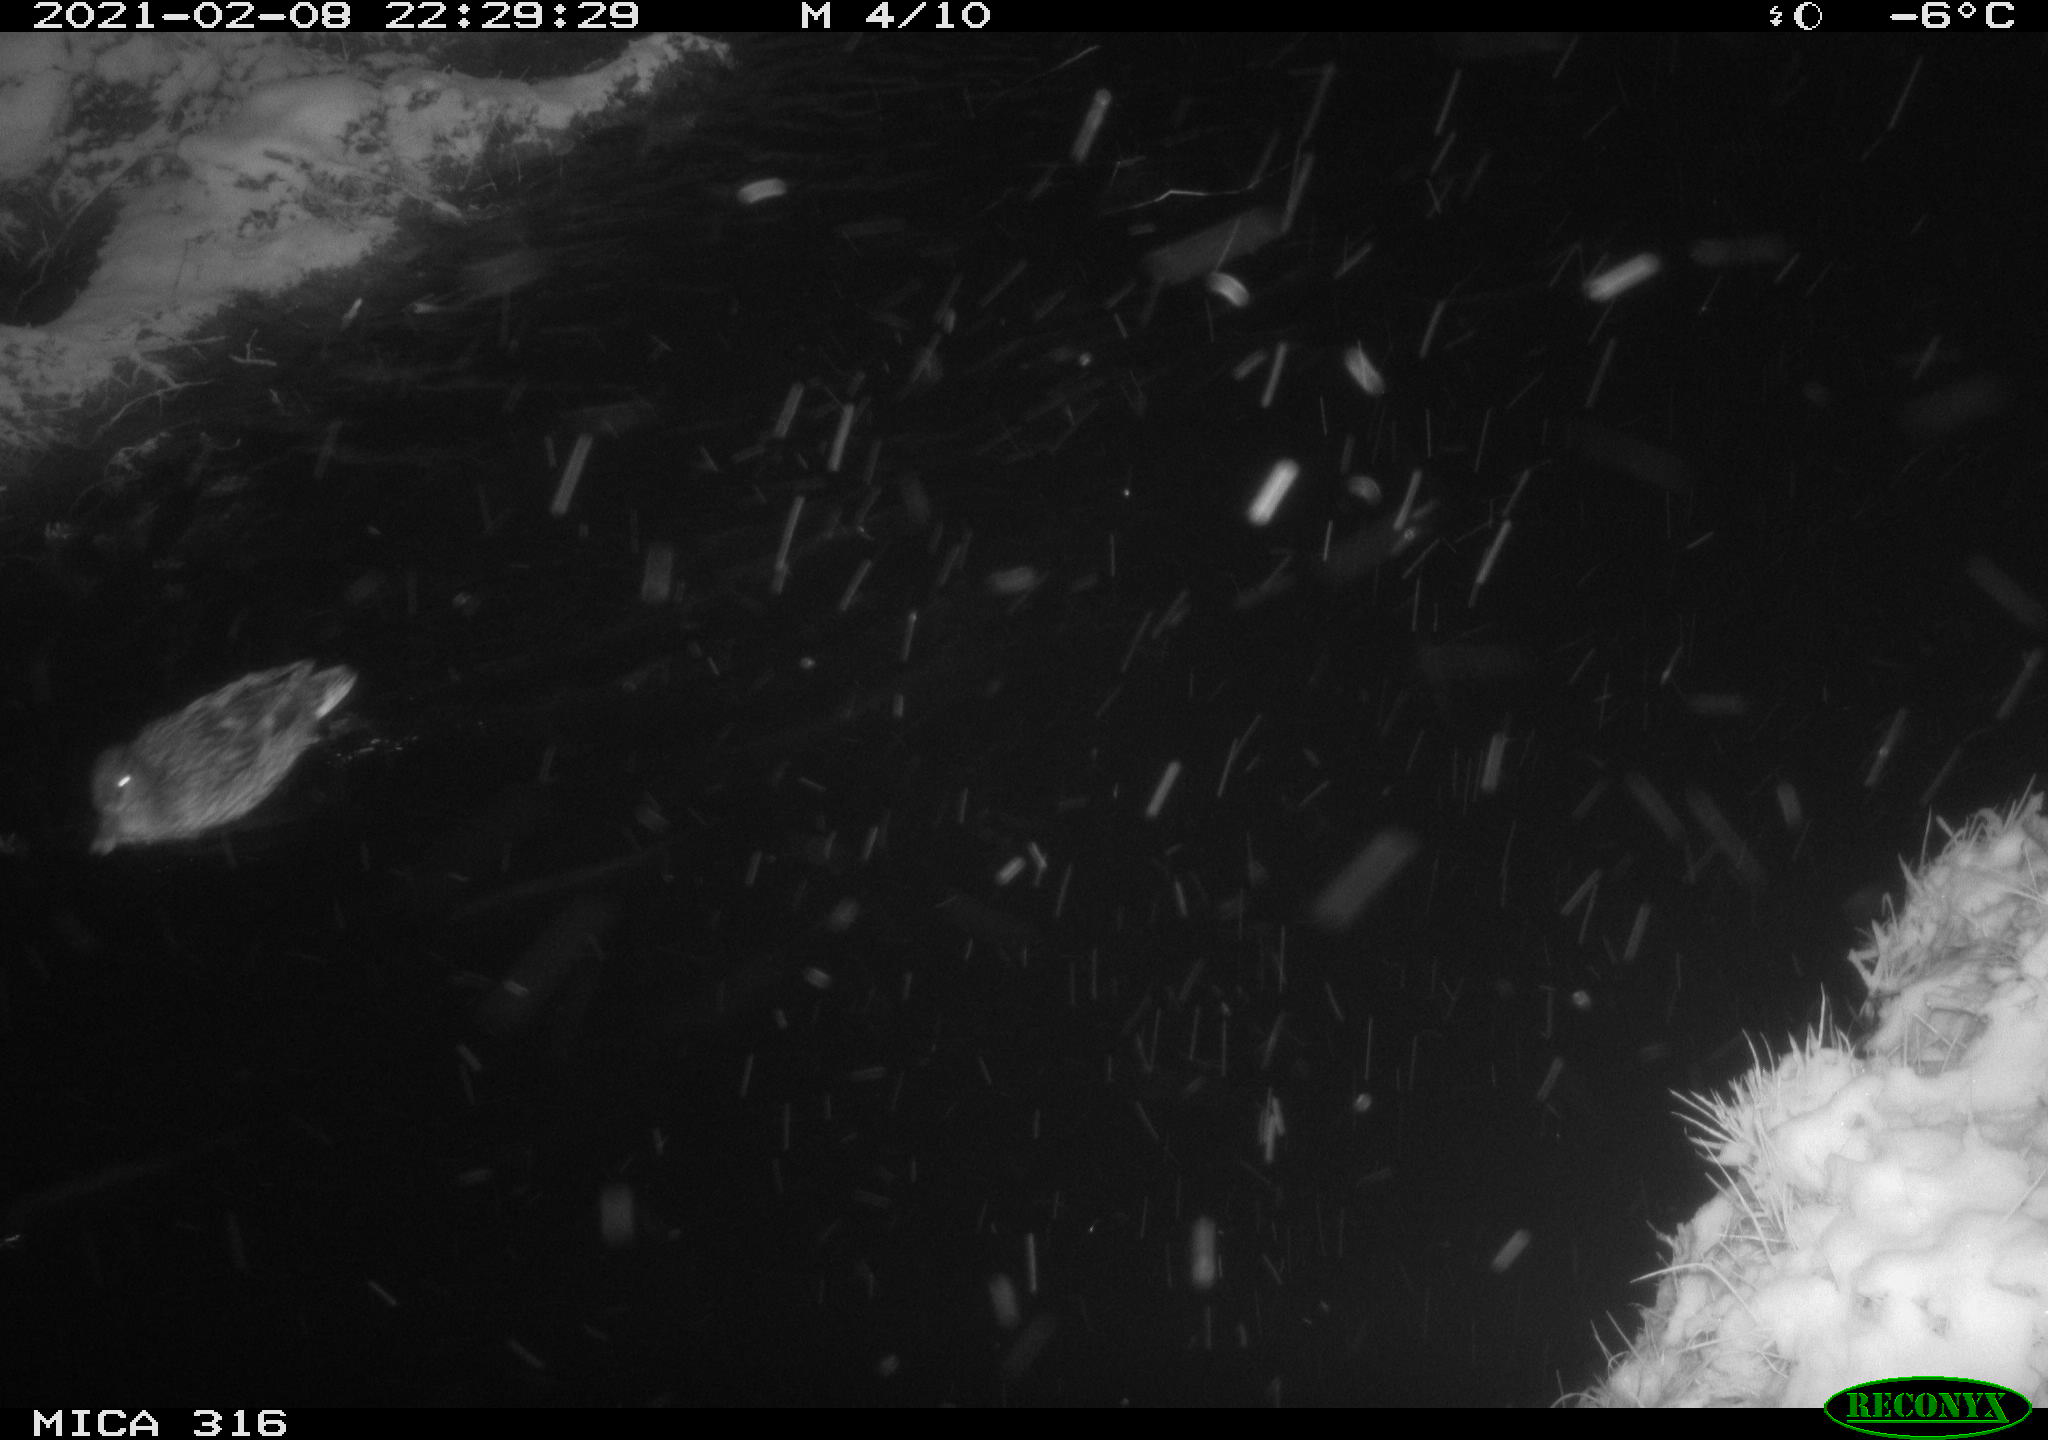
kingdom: Animalia
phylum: Chordata
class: Aves
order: Anseriformes
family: Anatidae
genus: Anas
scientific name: Anas platyrhynchos
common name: Mallard
